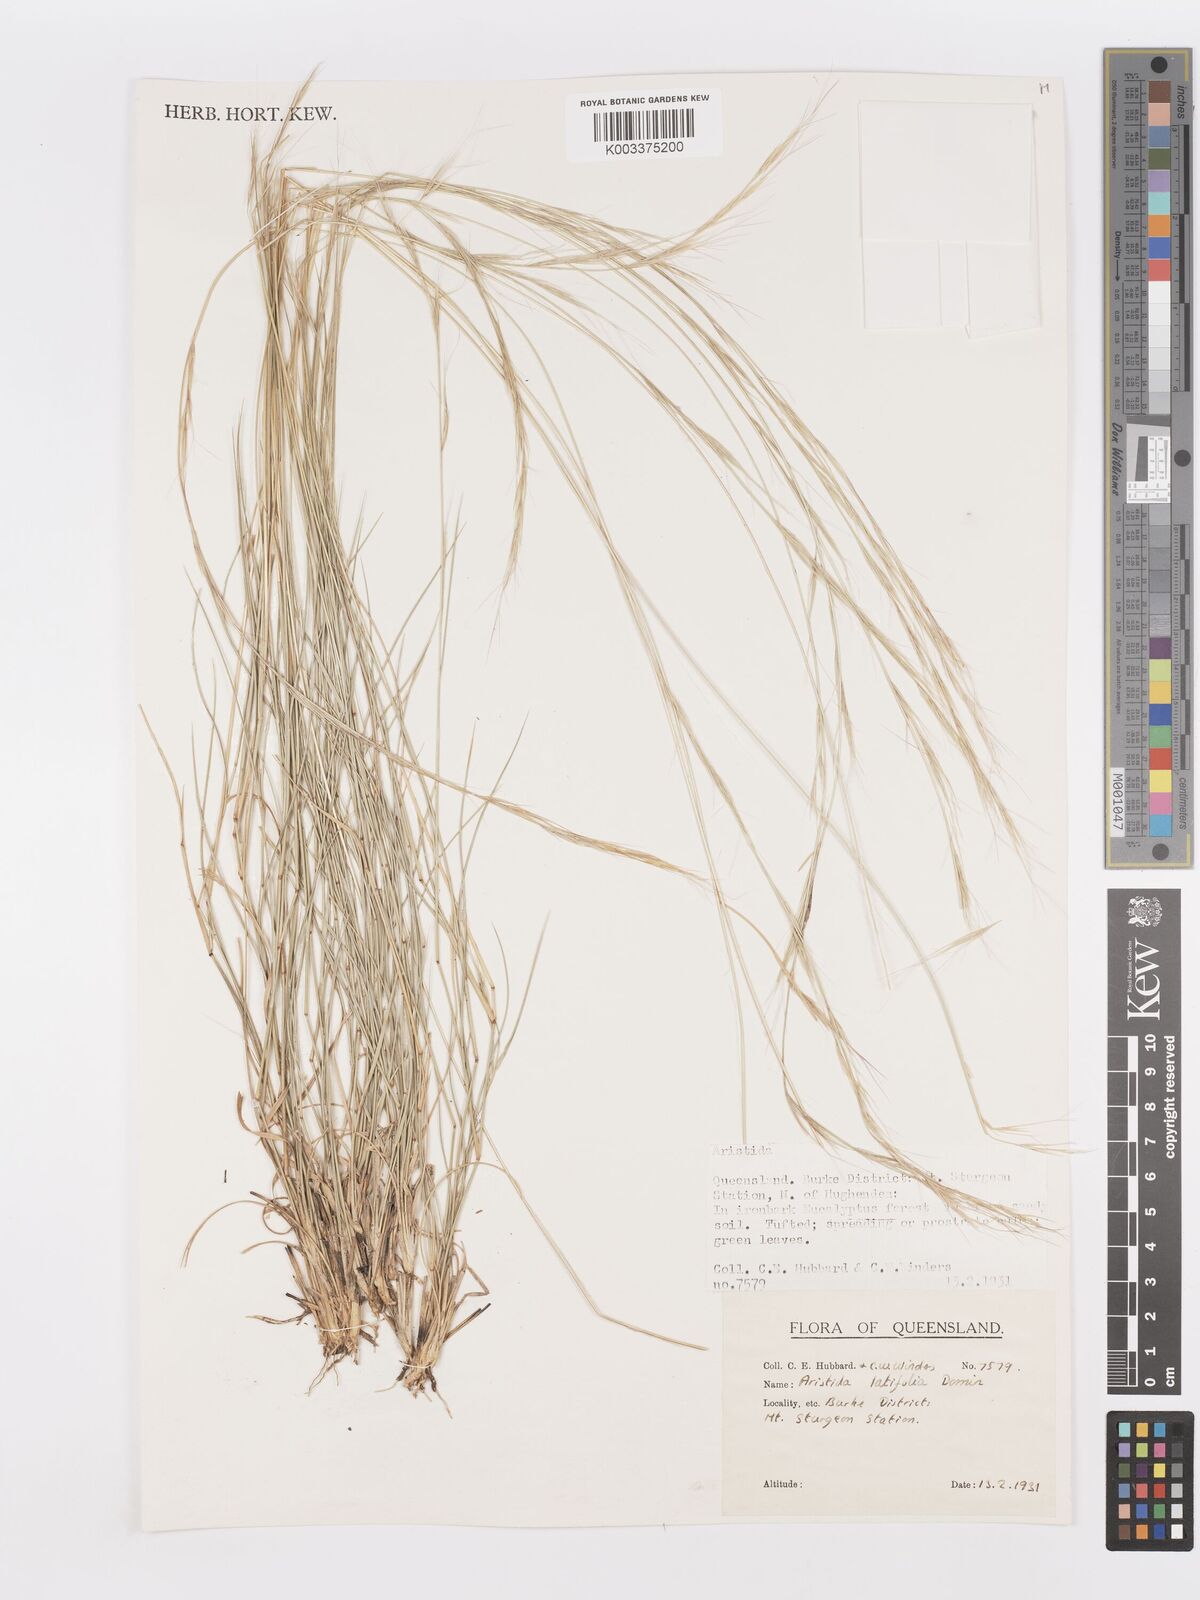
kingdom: Plantae
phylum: Tracheophyta
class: Liliopsida
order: Poales
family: Poaceae
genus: Aristida
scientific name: Aristida latifolia
